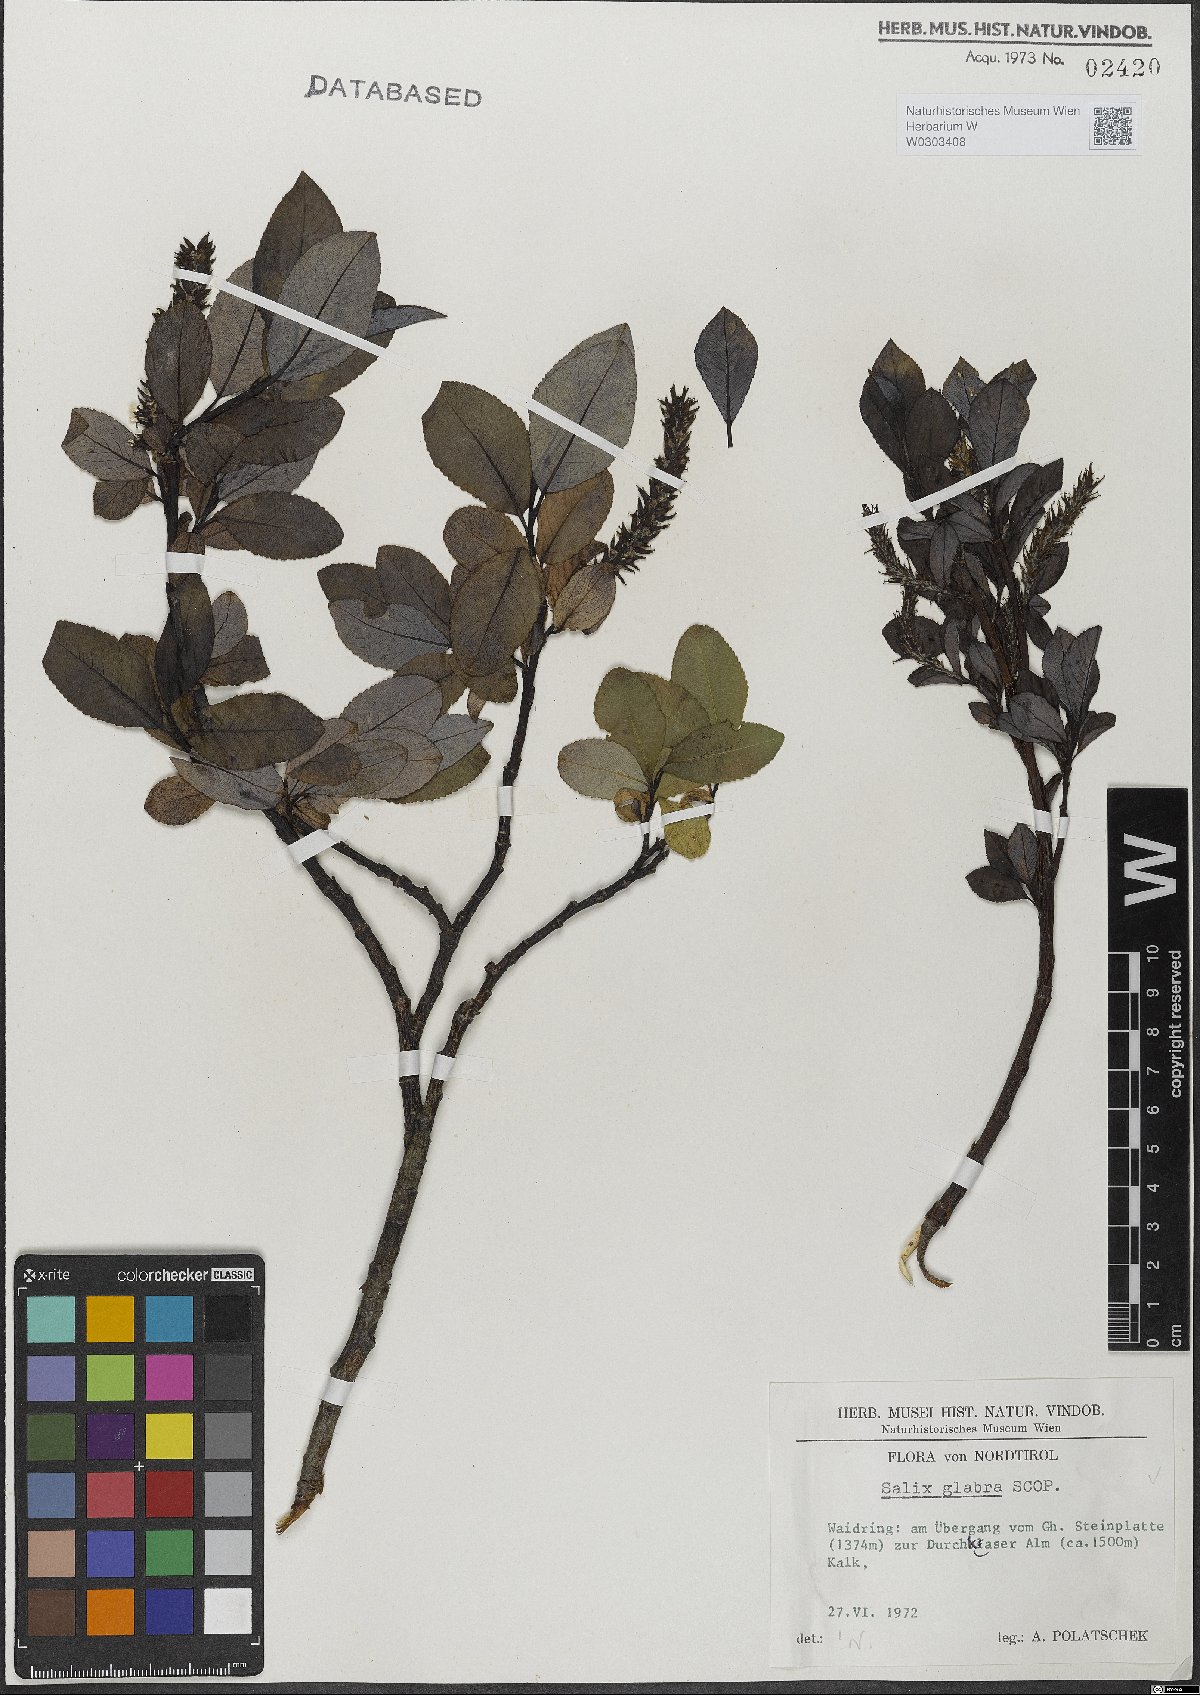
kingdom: Plantae
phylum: Tracheophyta
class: Magnoliopsida
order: Malpighiales
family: Salicaceae
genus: Salix
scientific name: Salix glabra
